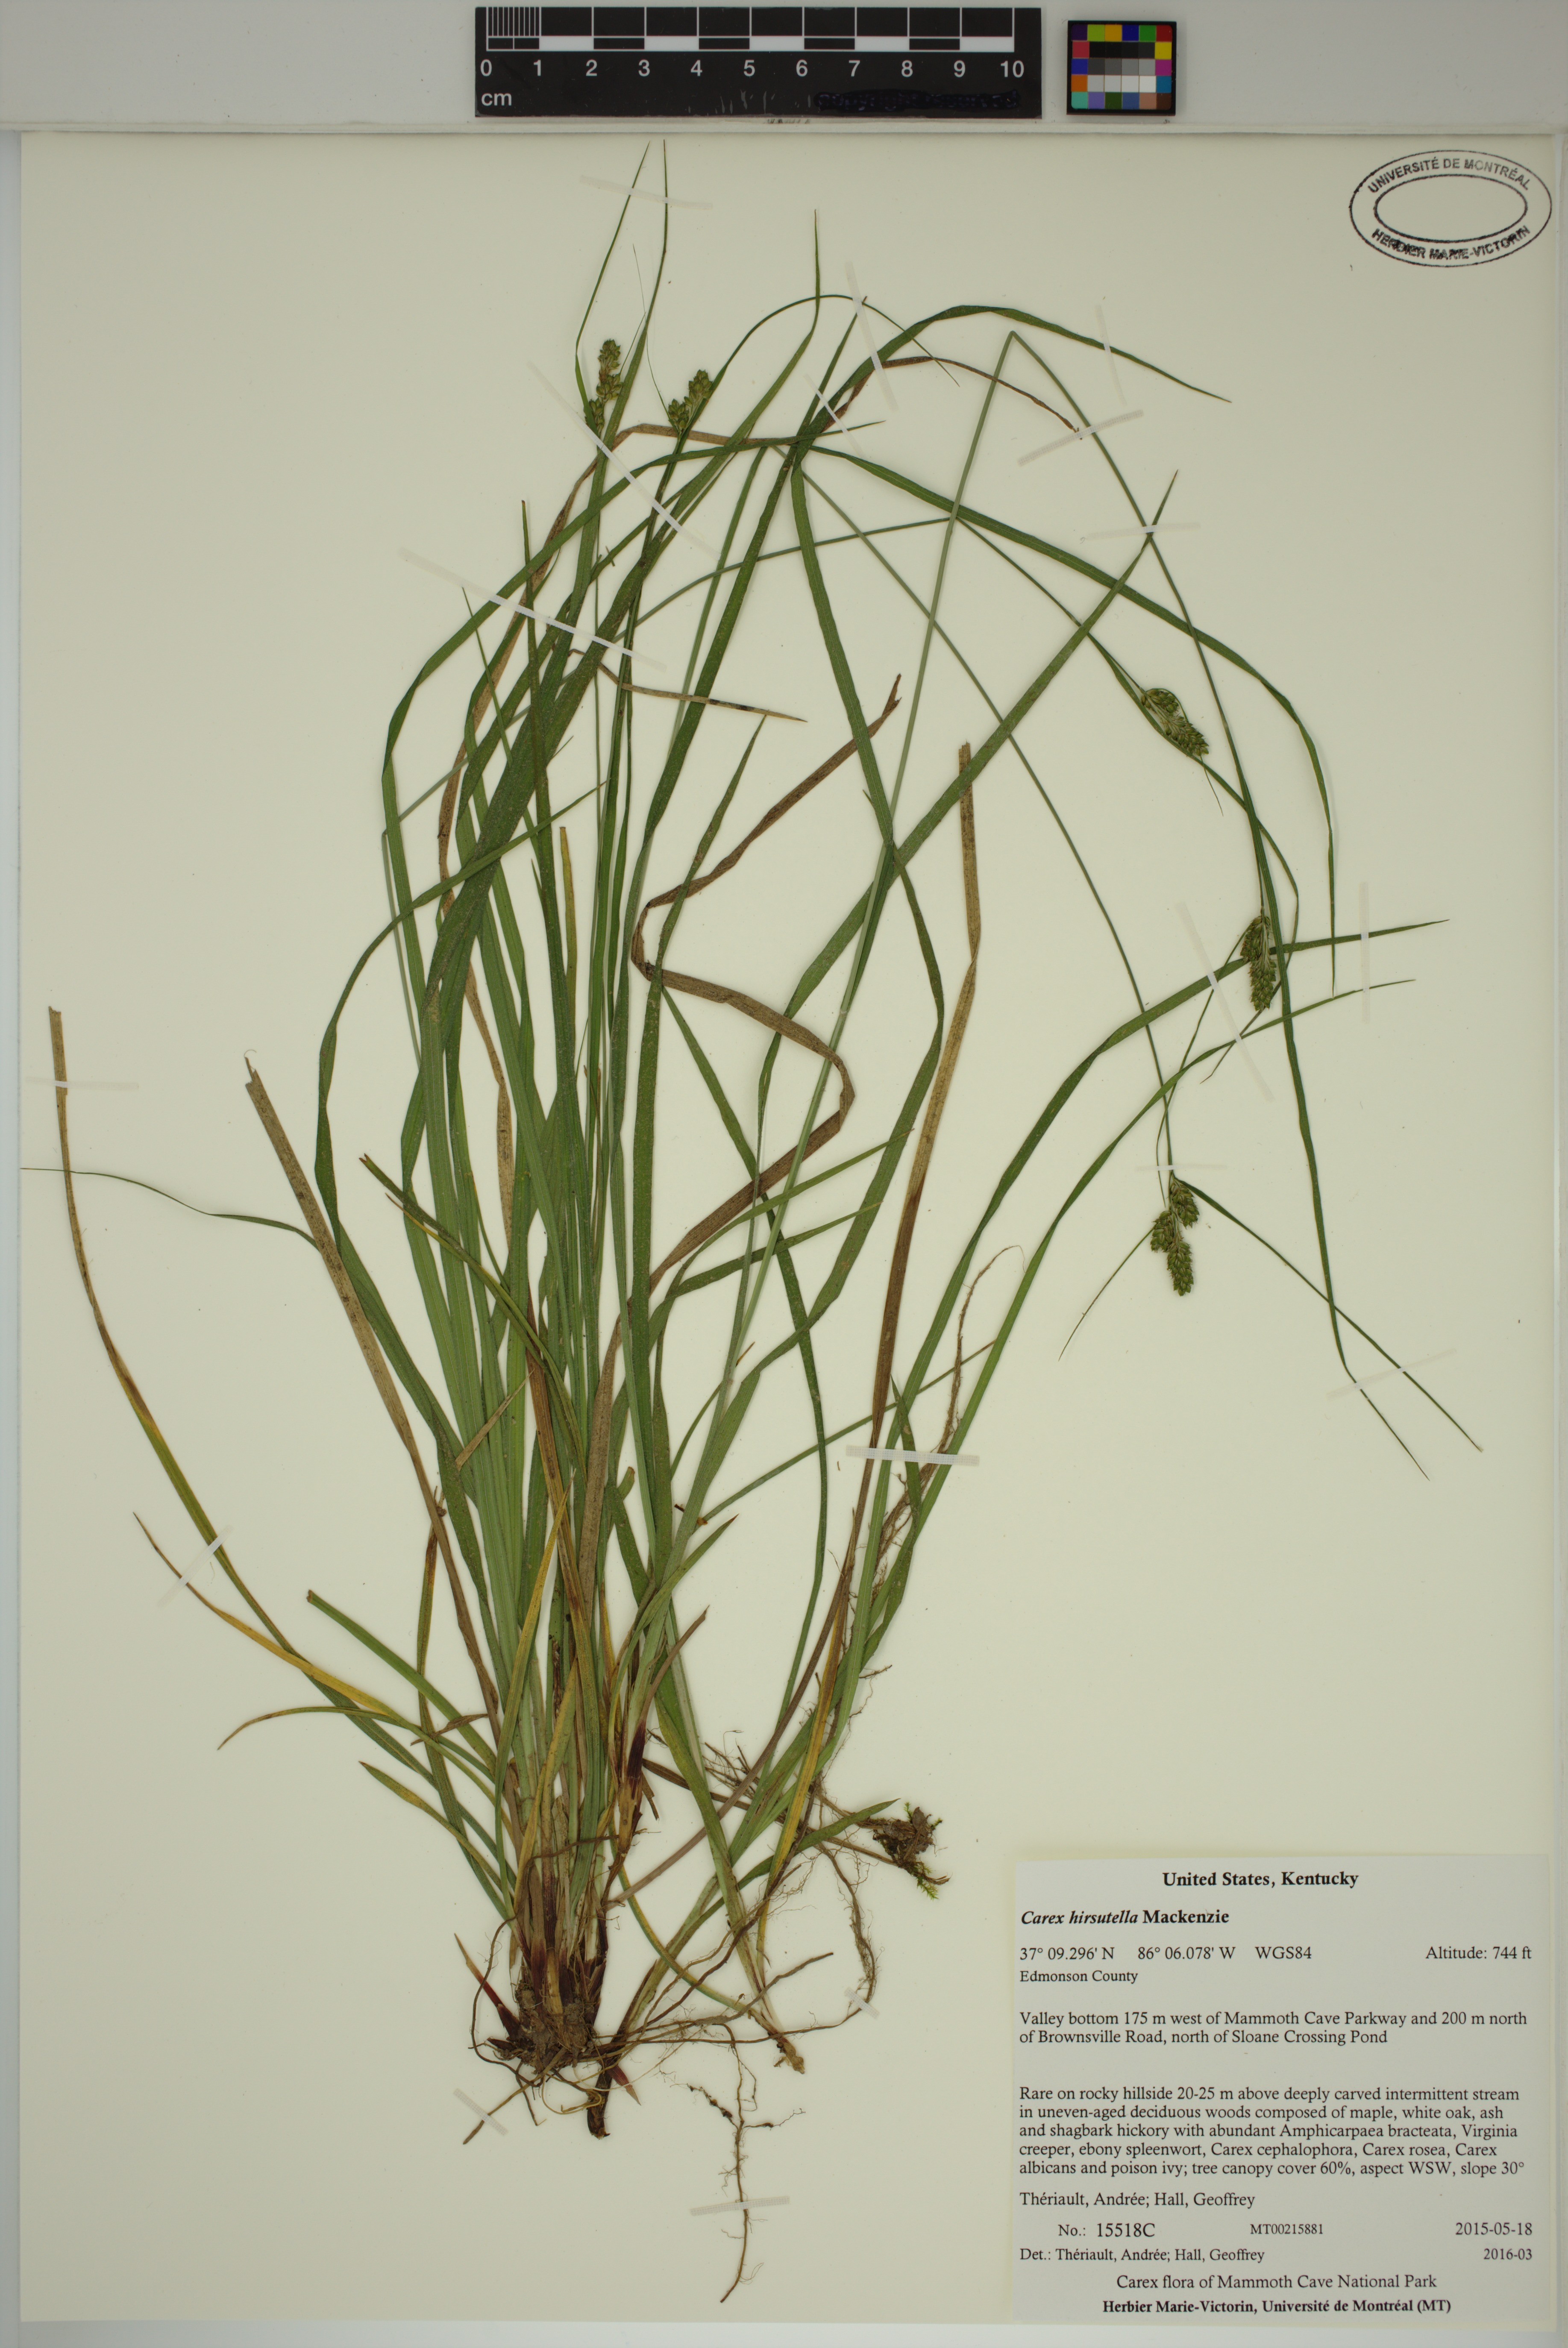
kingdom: Plantae
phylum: Tracheophyta
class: Liliopsida
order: Poales
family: Cyperaceae
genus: Carex
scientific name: Carex hirsutella
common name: Fuzzy wuzzy sedge
